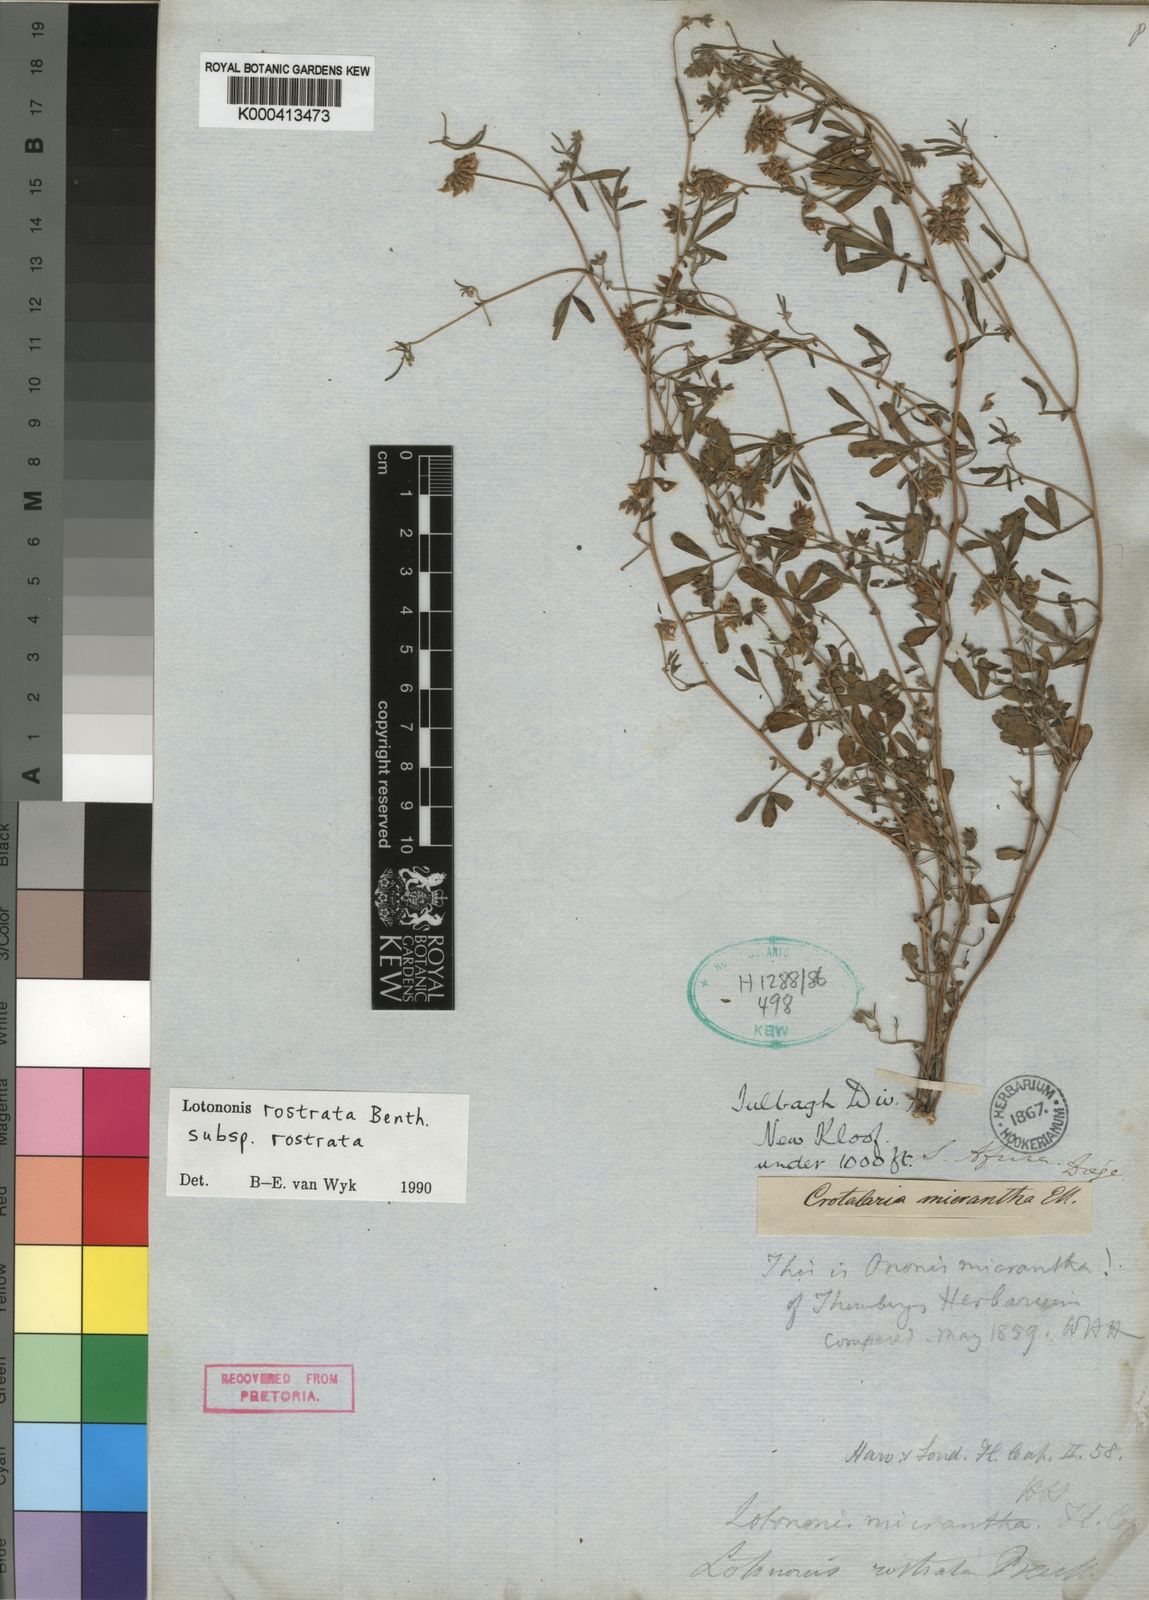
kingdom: Plantae
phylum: Tracheophyta
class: Magnoliopsida
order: Fabales
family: Fabaceae
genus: Lotononis
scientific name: Lotononis rostrata
